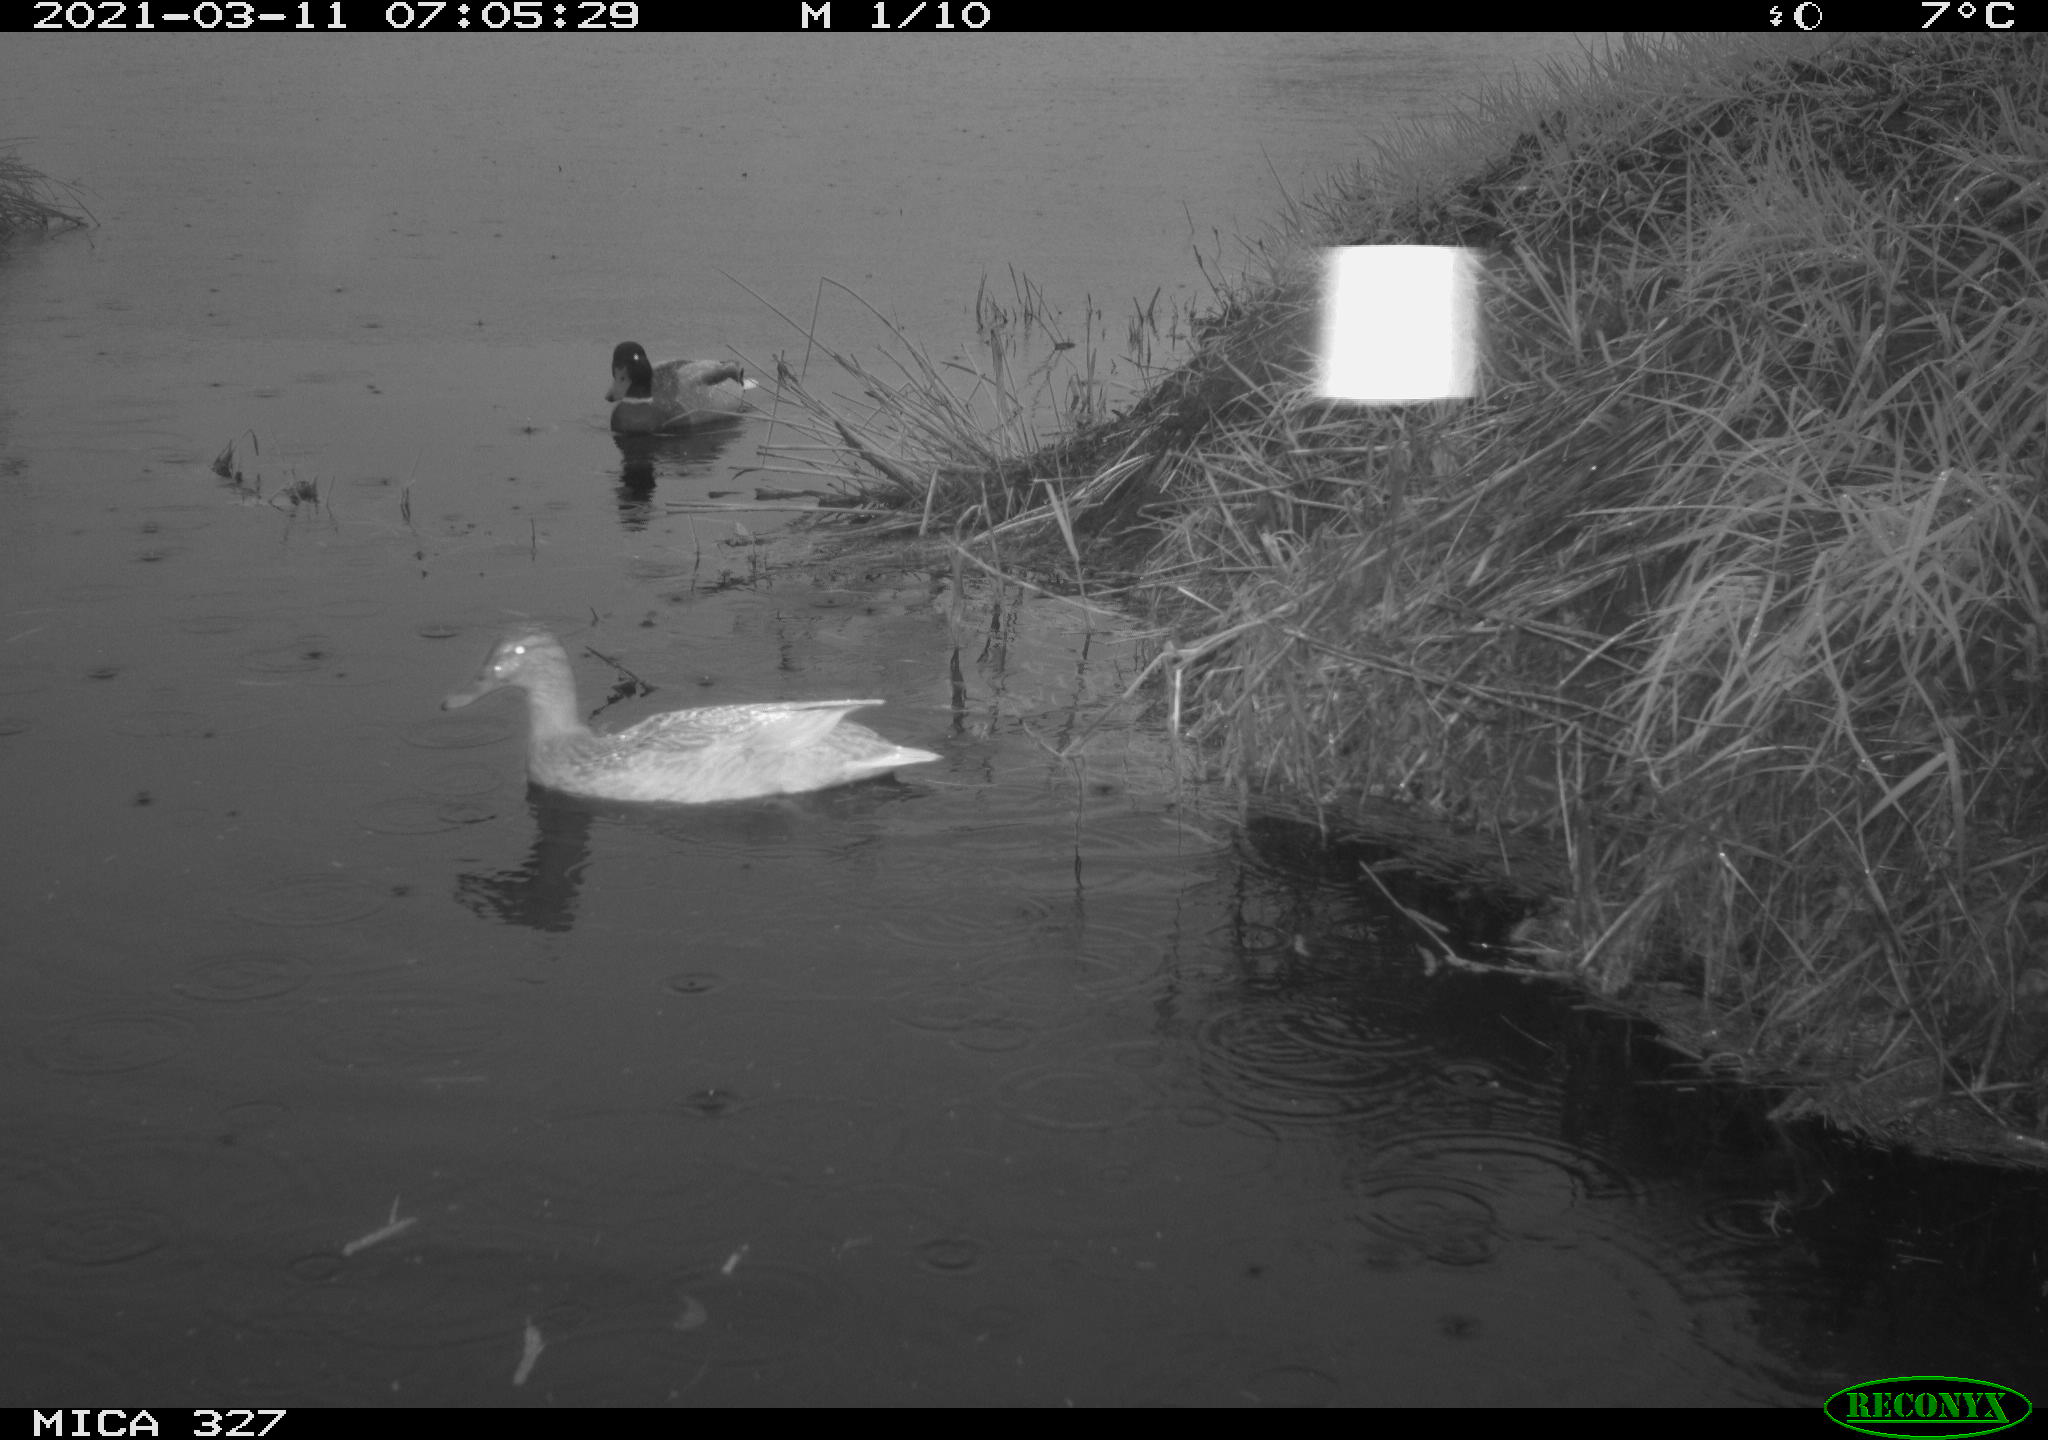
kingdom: Animalia
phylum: Chordata
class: Aves
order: Anseriformes
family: Anatidae
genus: Anas
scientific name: Anas platyrhynchos
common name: Mallard
